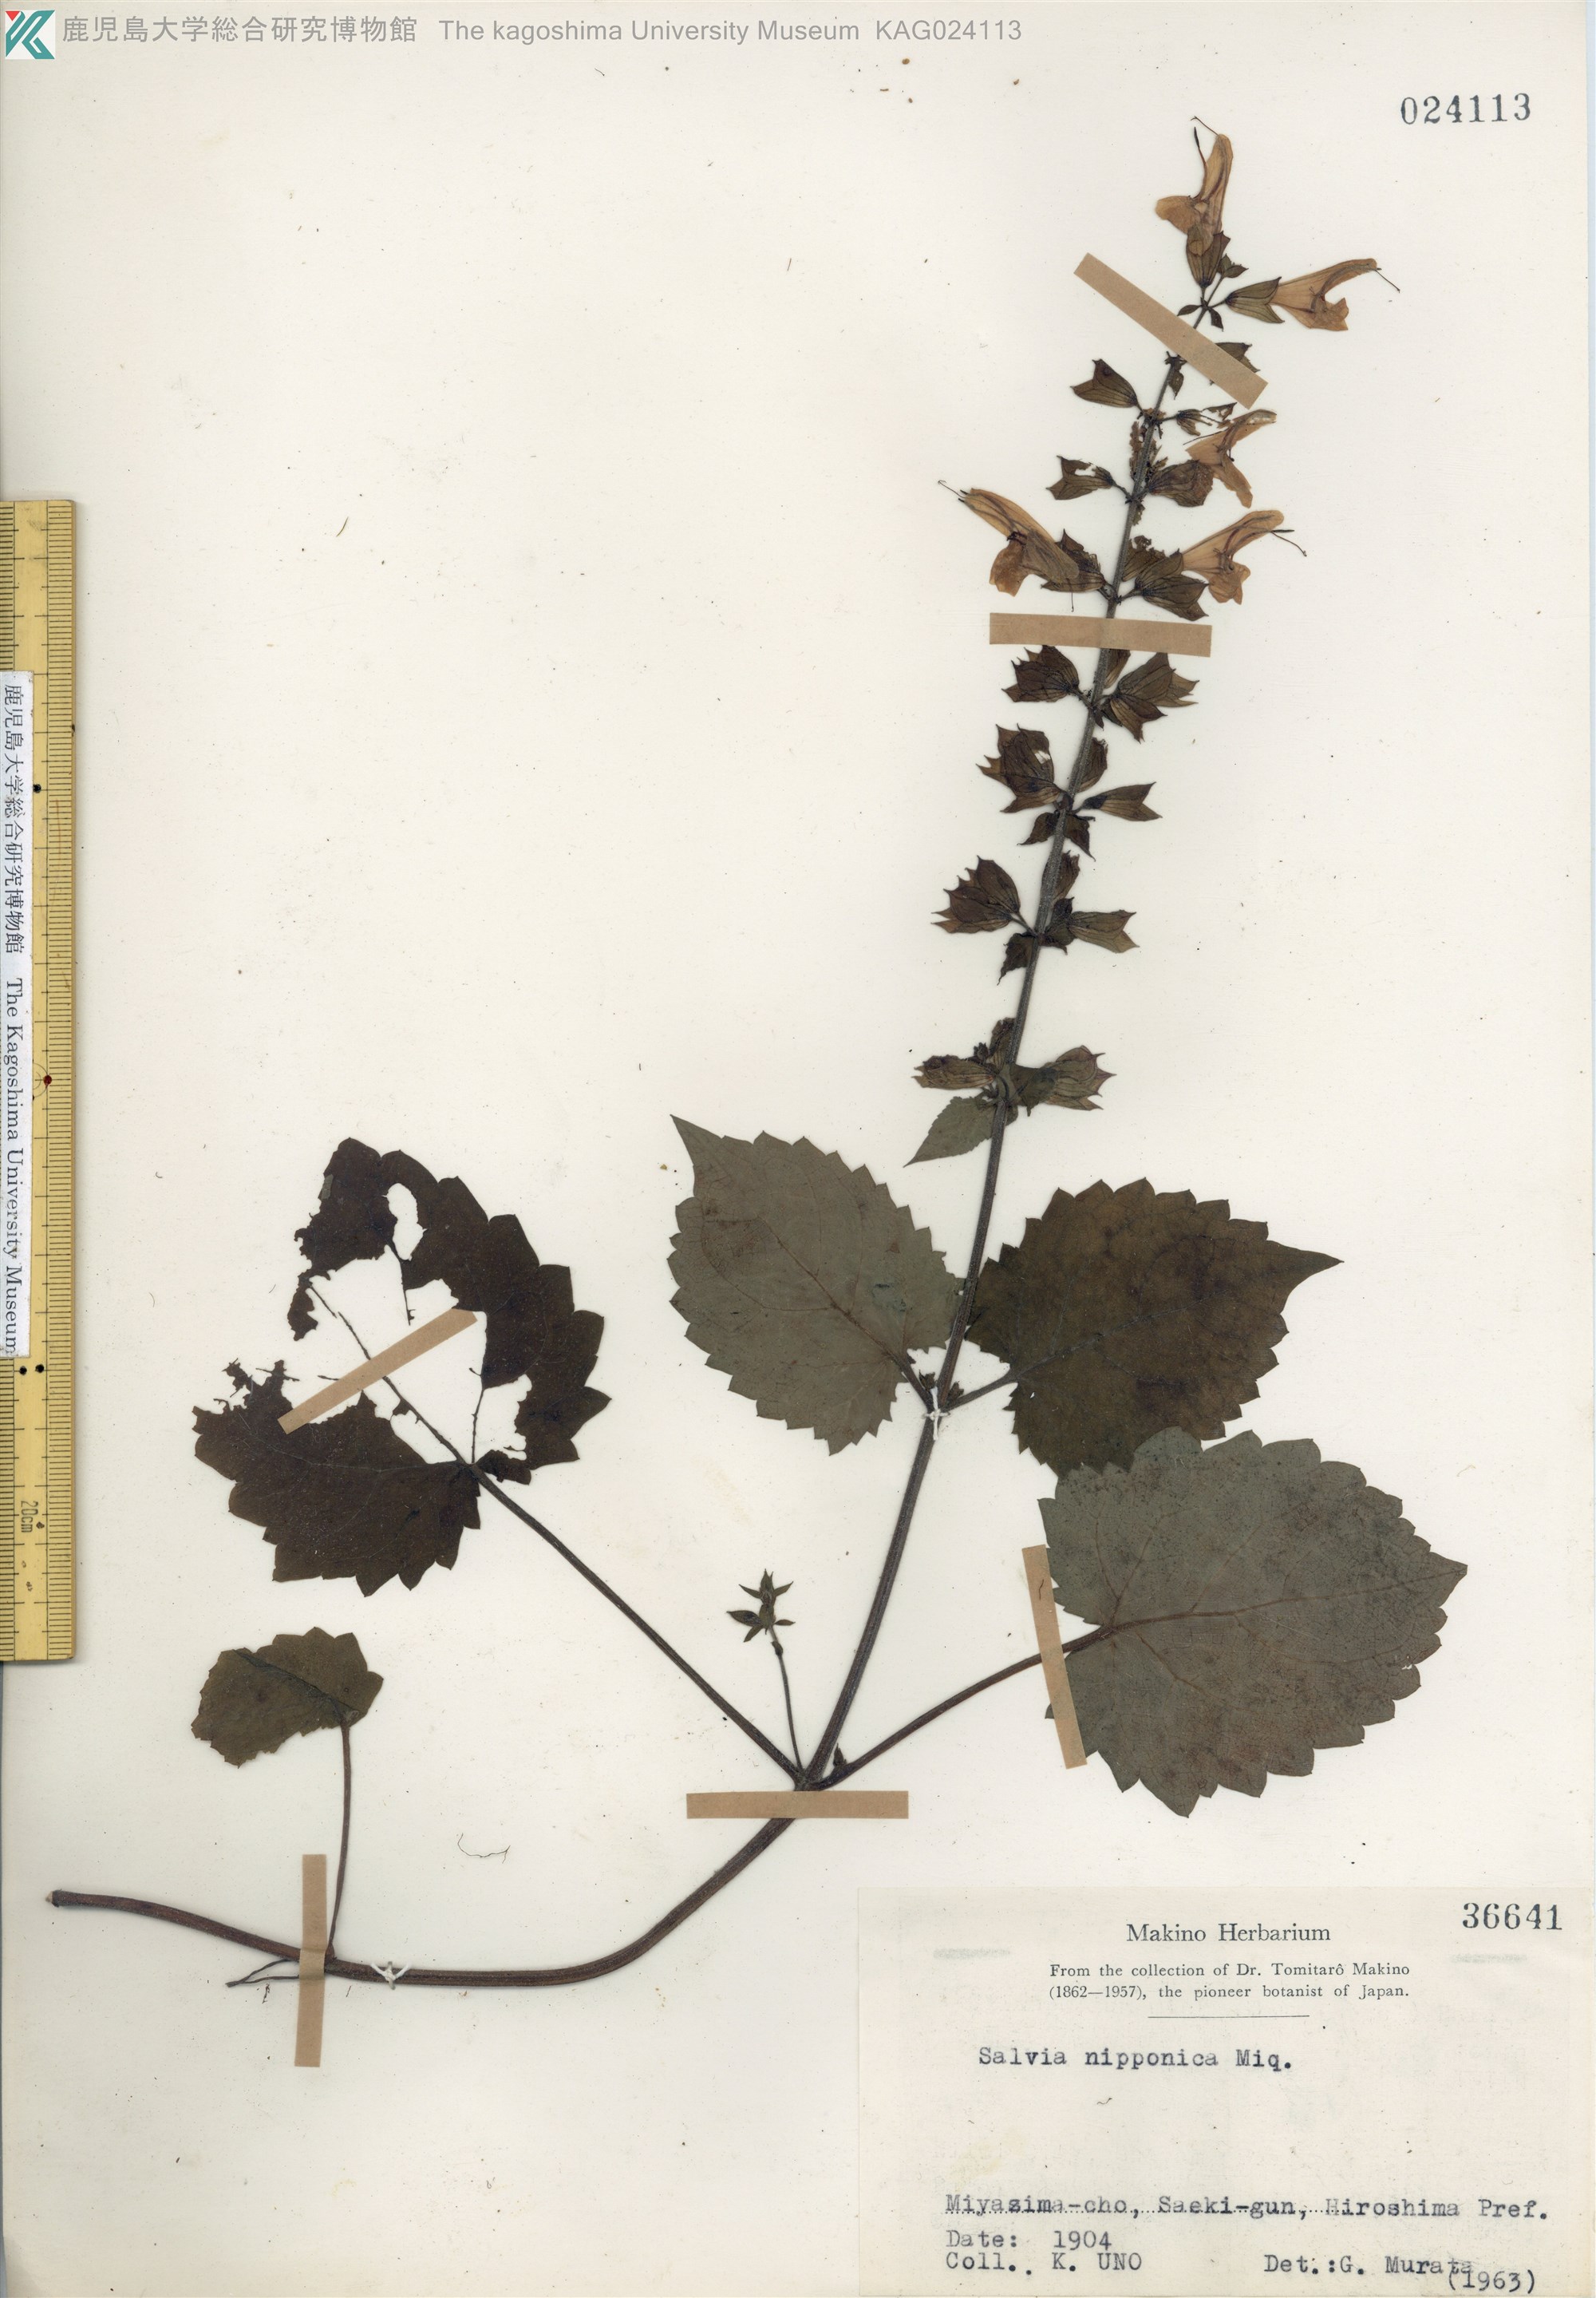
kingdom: Plantae
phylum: Tracheophyta
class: Magnoliopsida
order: Lamiales
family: Lamiaceae
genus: Salvia
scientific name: Salvia nipponica
